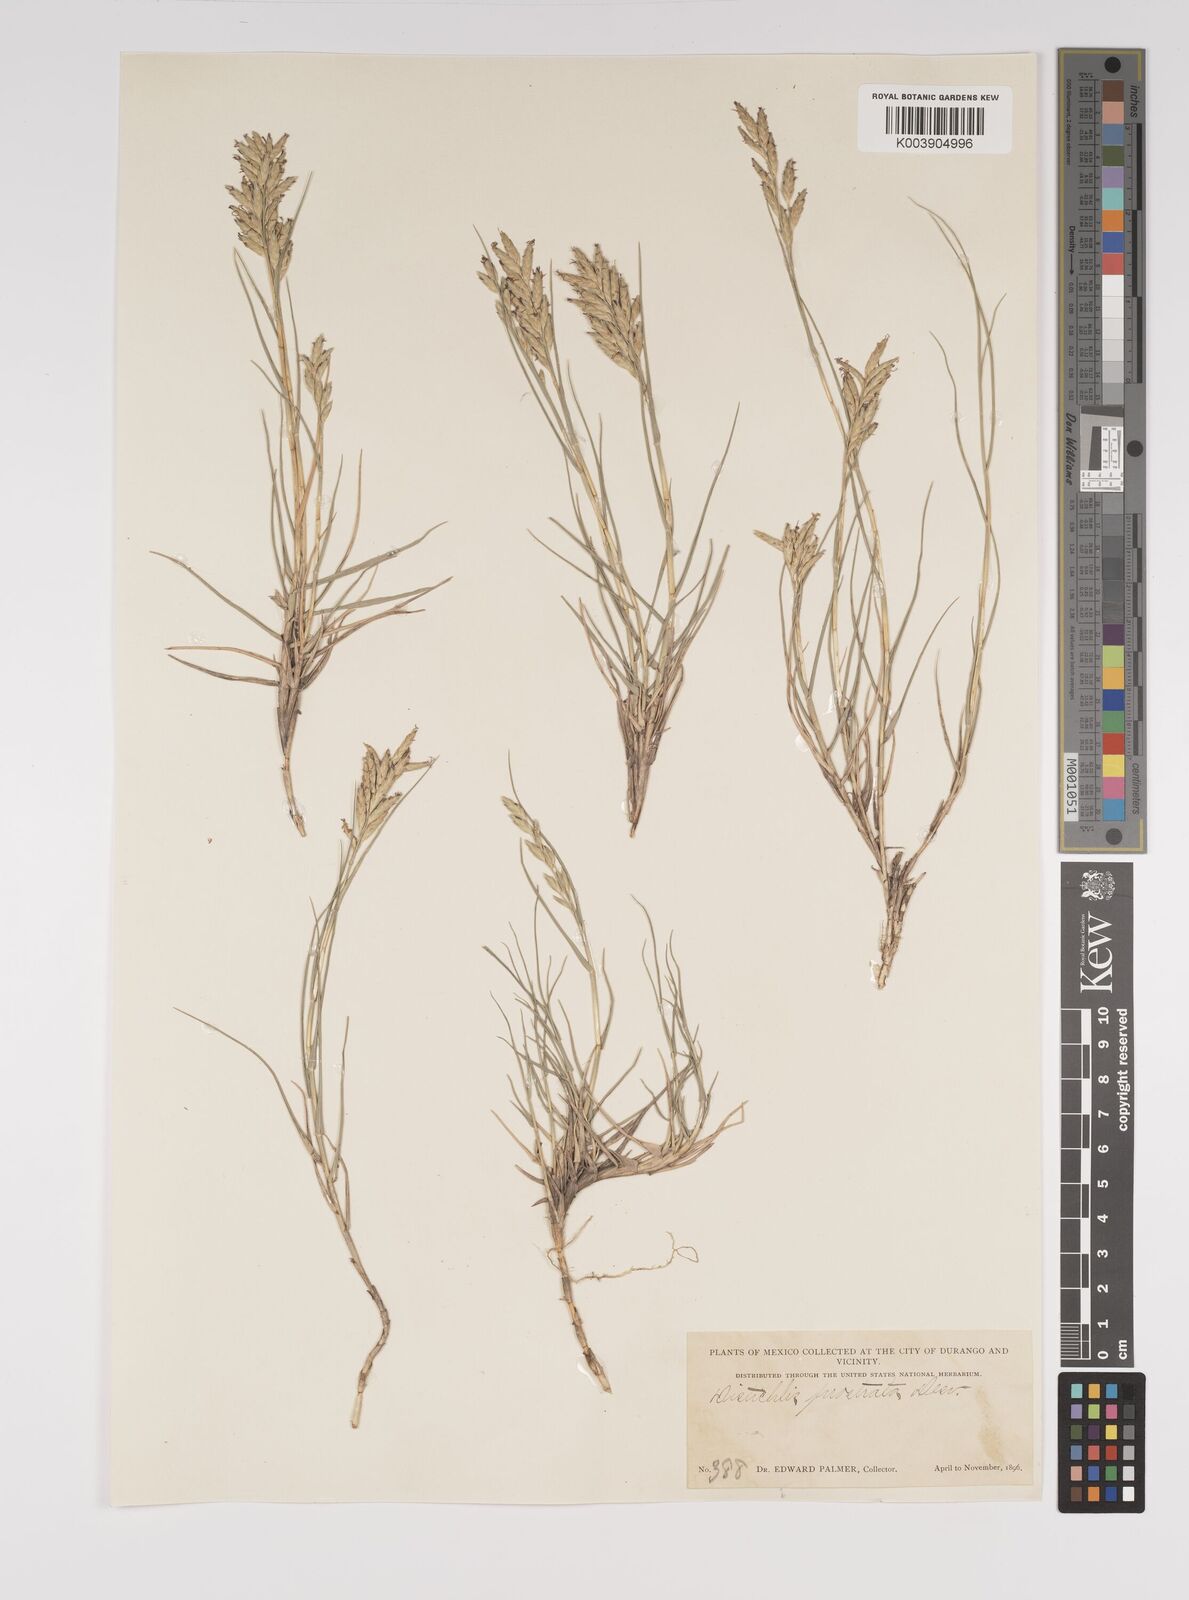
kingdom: Plantae
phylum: Tracheophyta
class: Liliopsida
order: Poales
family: Poaceae
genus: Distichlis
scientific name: Distichlis spicata
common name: Saltgrass
